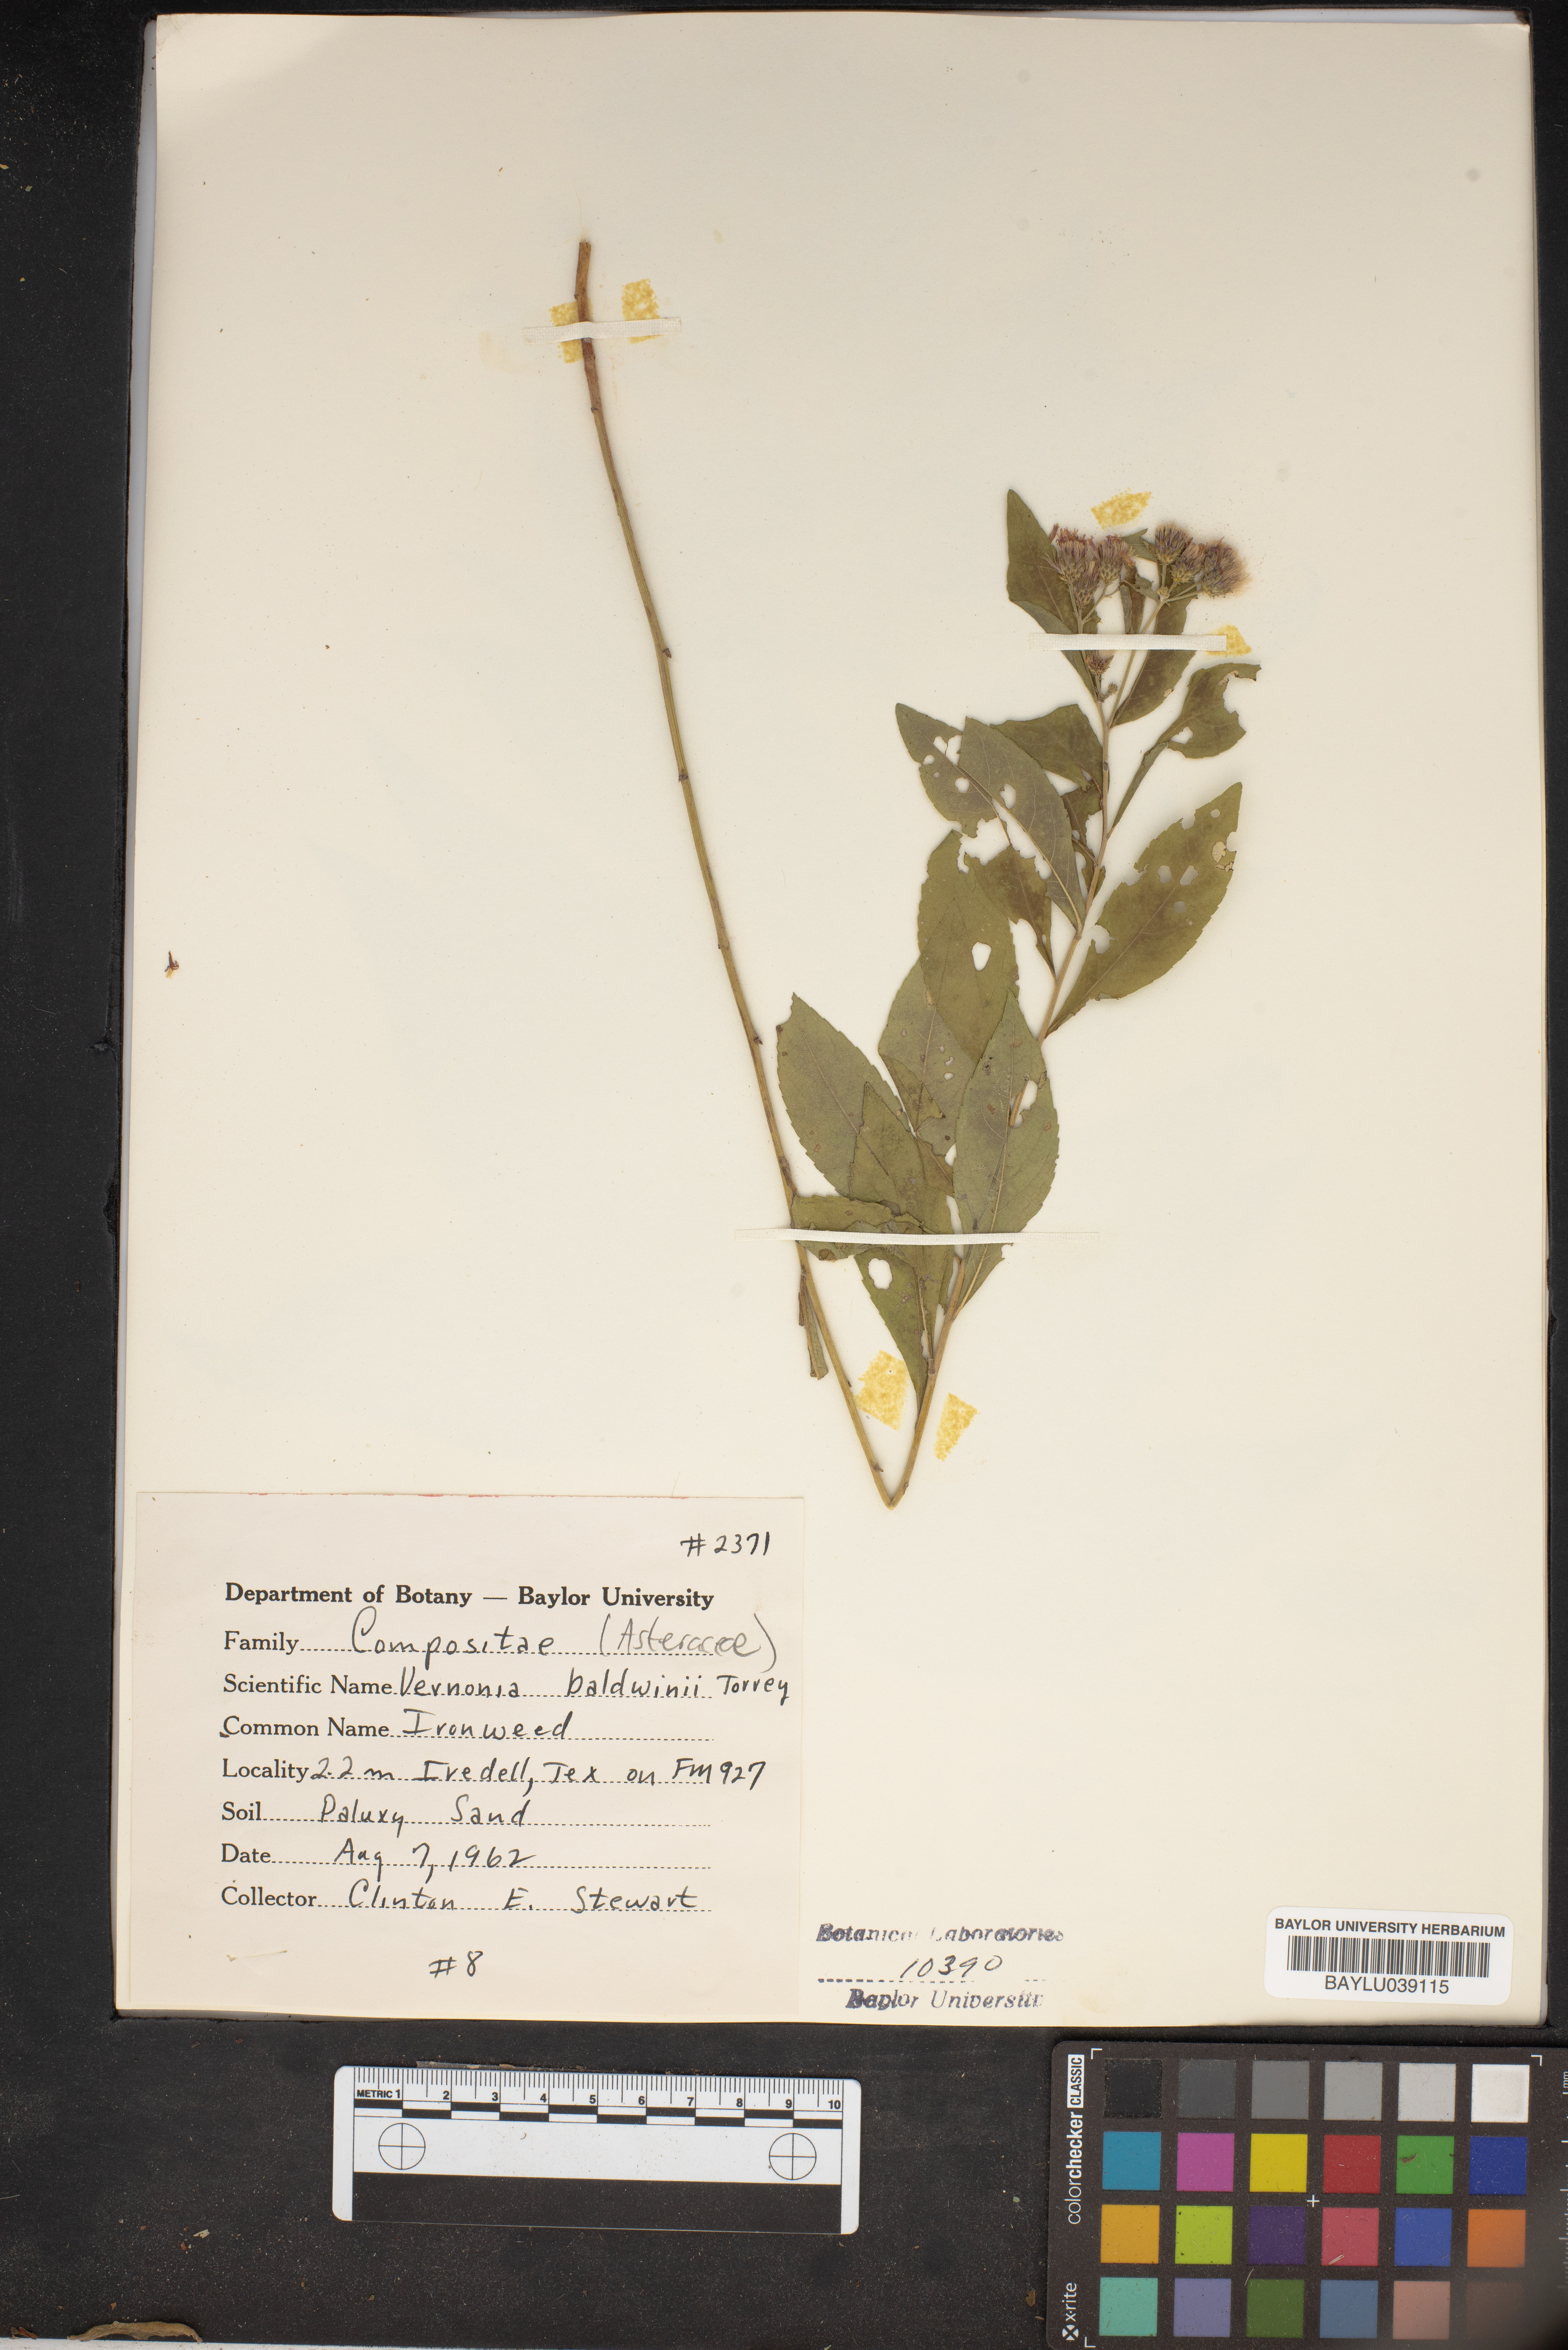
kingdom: Plantae
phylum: Tracheophyta
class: Magnoliopsida
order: Asterales
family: Asteraceae
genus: Vernonia
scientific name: Vernonia baldwinii
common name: Western ironweed
